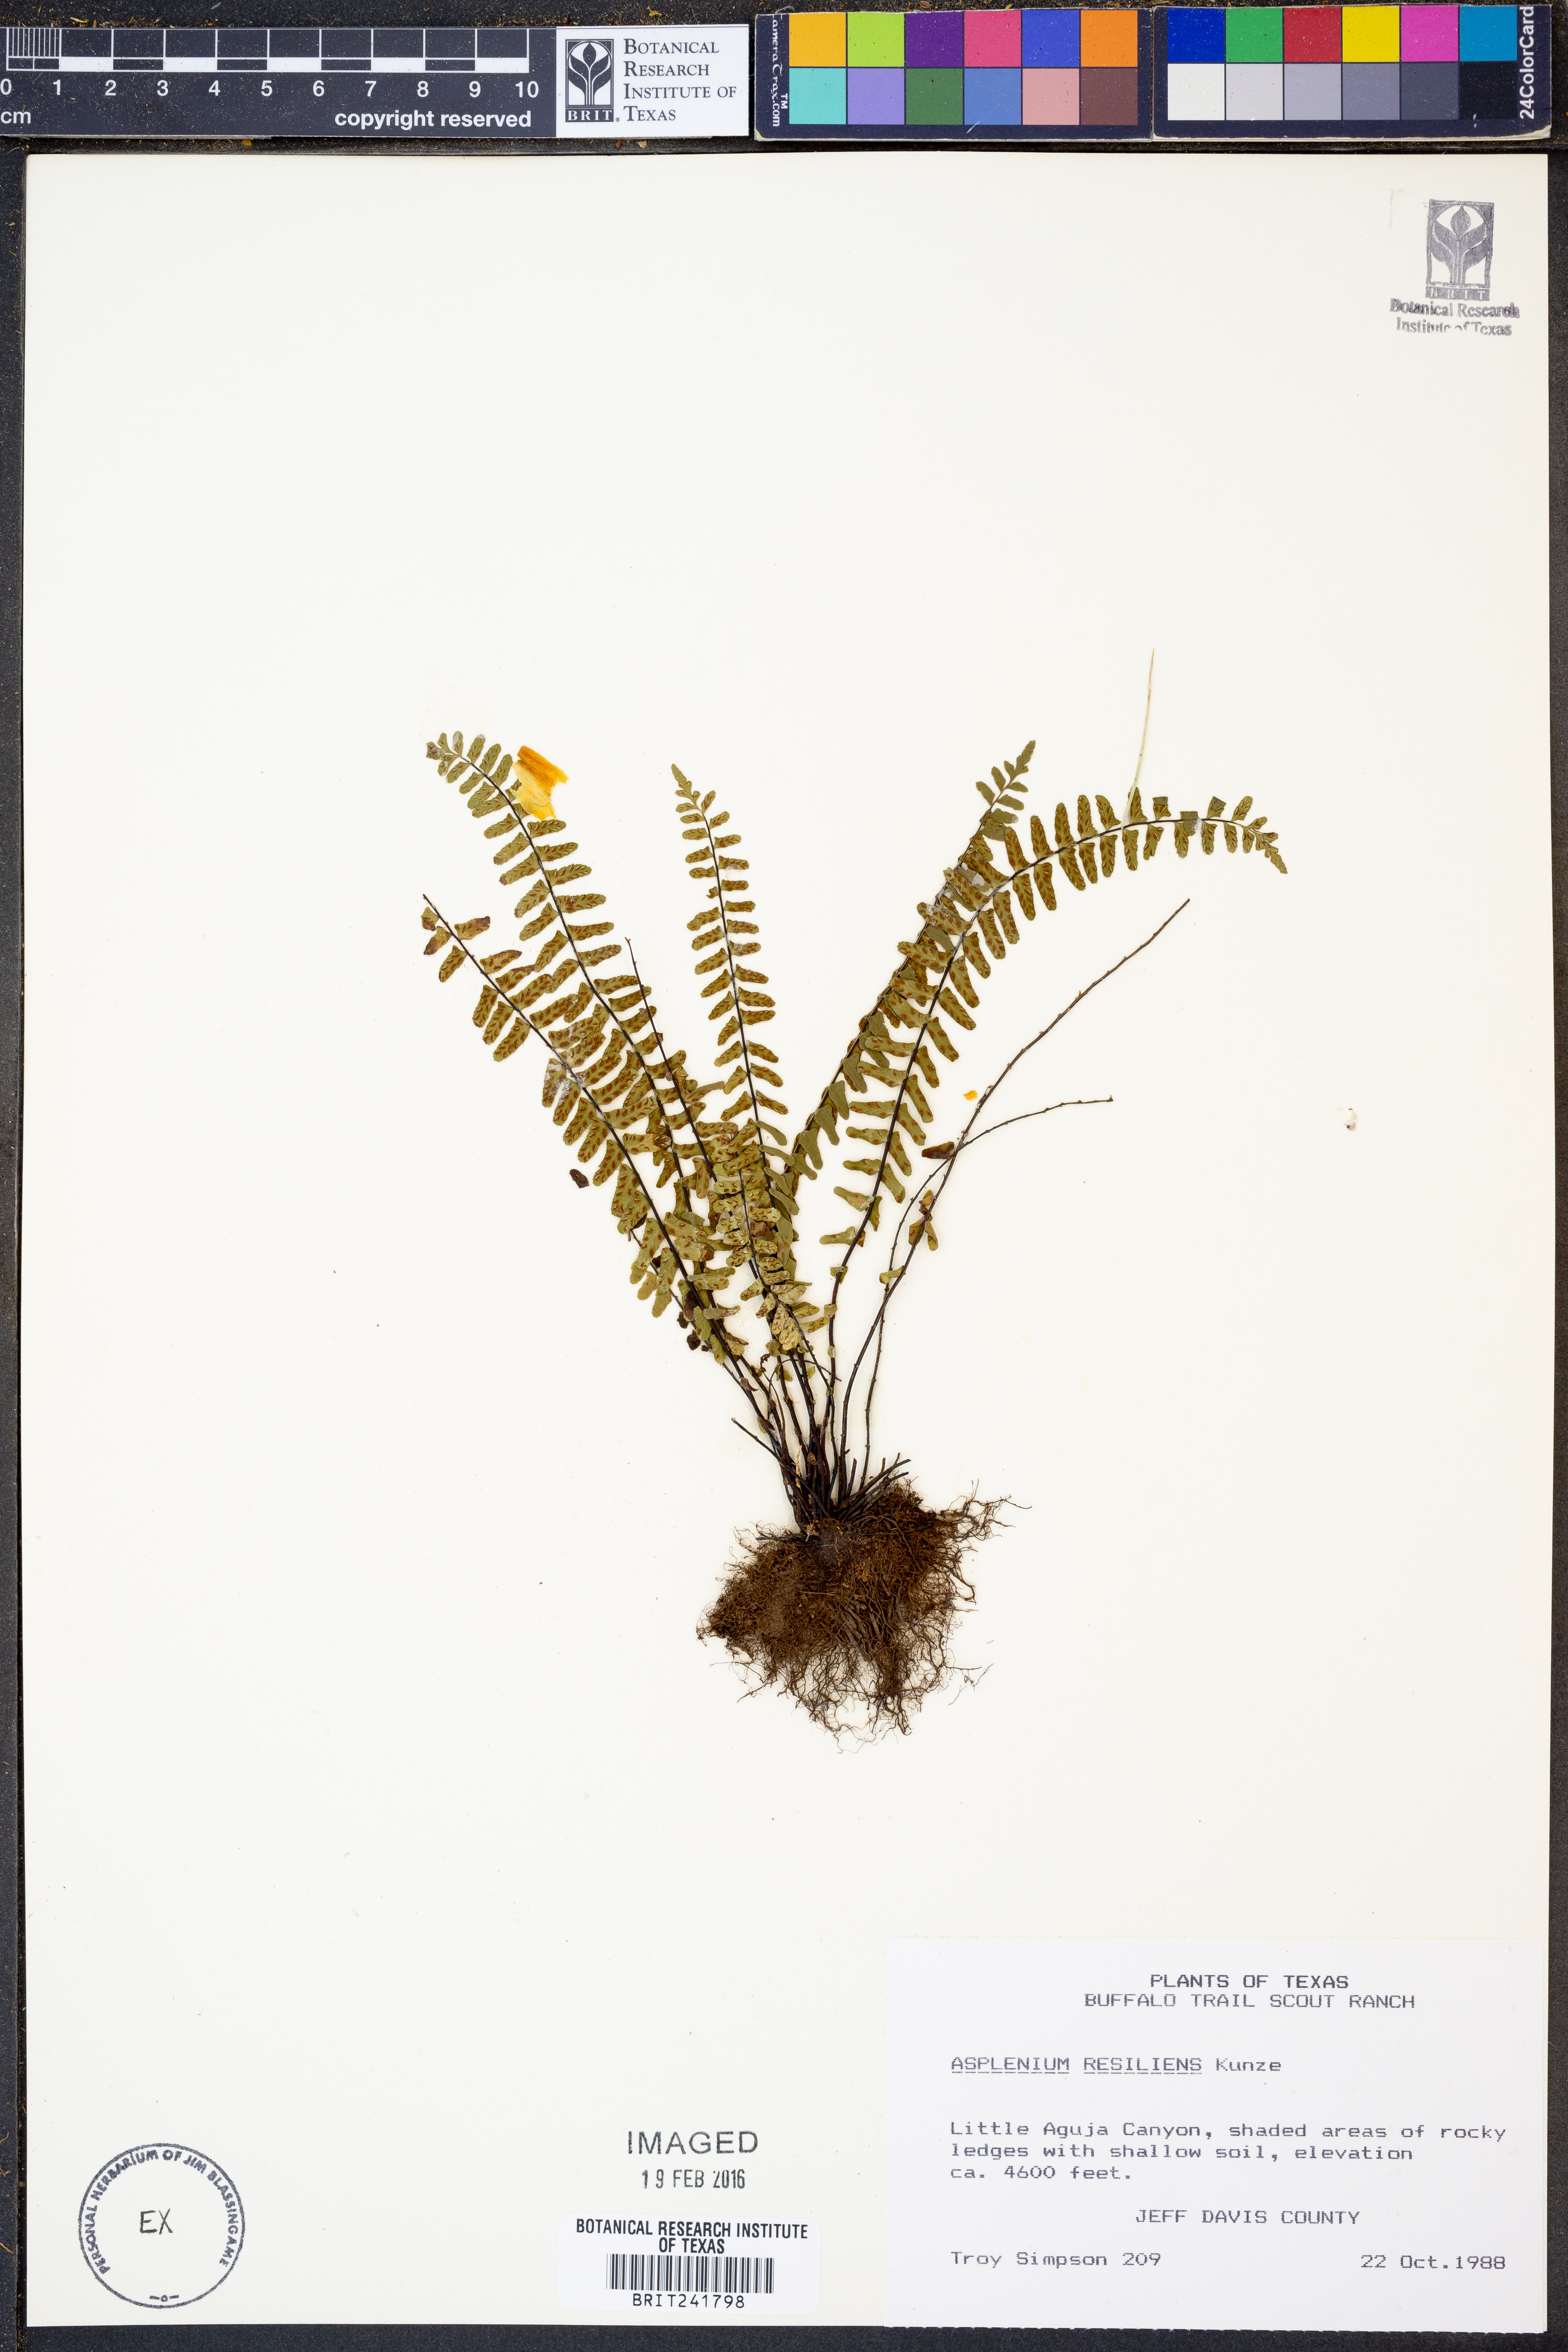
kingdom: Plantae
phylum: Tracheophyta
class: Polypodiopsida
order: Polypodiales
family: Aspleniaceae
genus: Asplenium
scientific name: Asplenium resiliens
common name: Blackstem spleenwort
